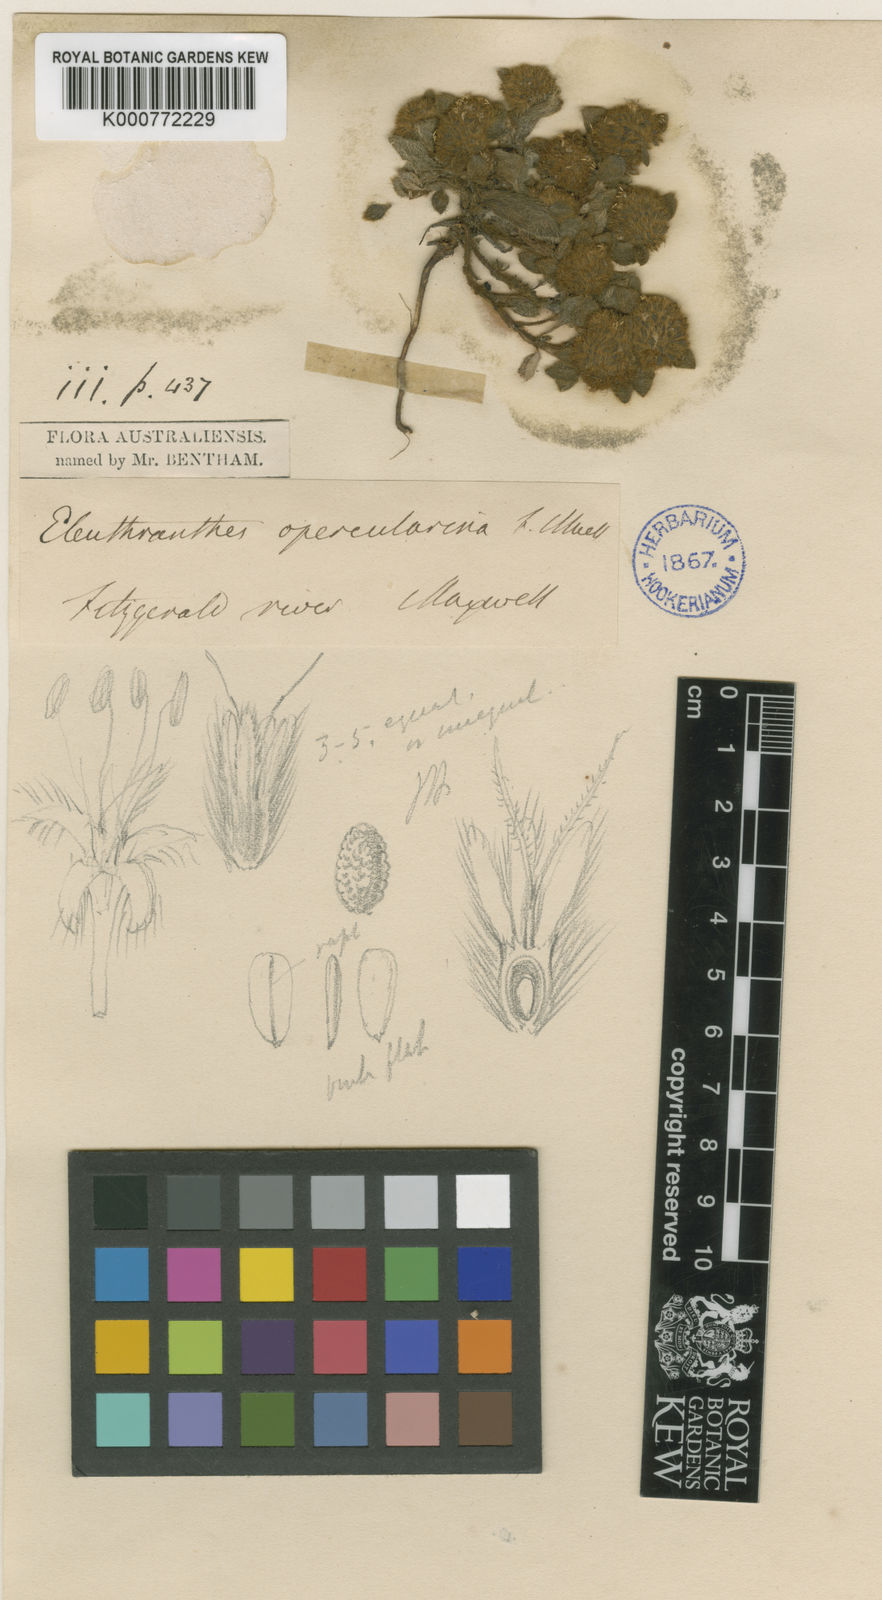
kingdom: Plantae
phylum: Tracheophyta
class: Magnoliopsida
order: Gentianales
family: Rubiaceae
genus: Eleuthranthes
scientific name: Eleuthranthes liberiflora
